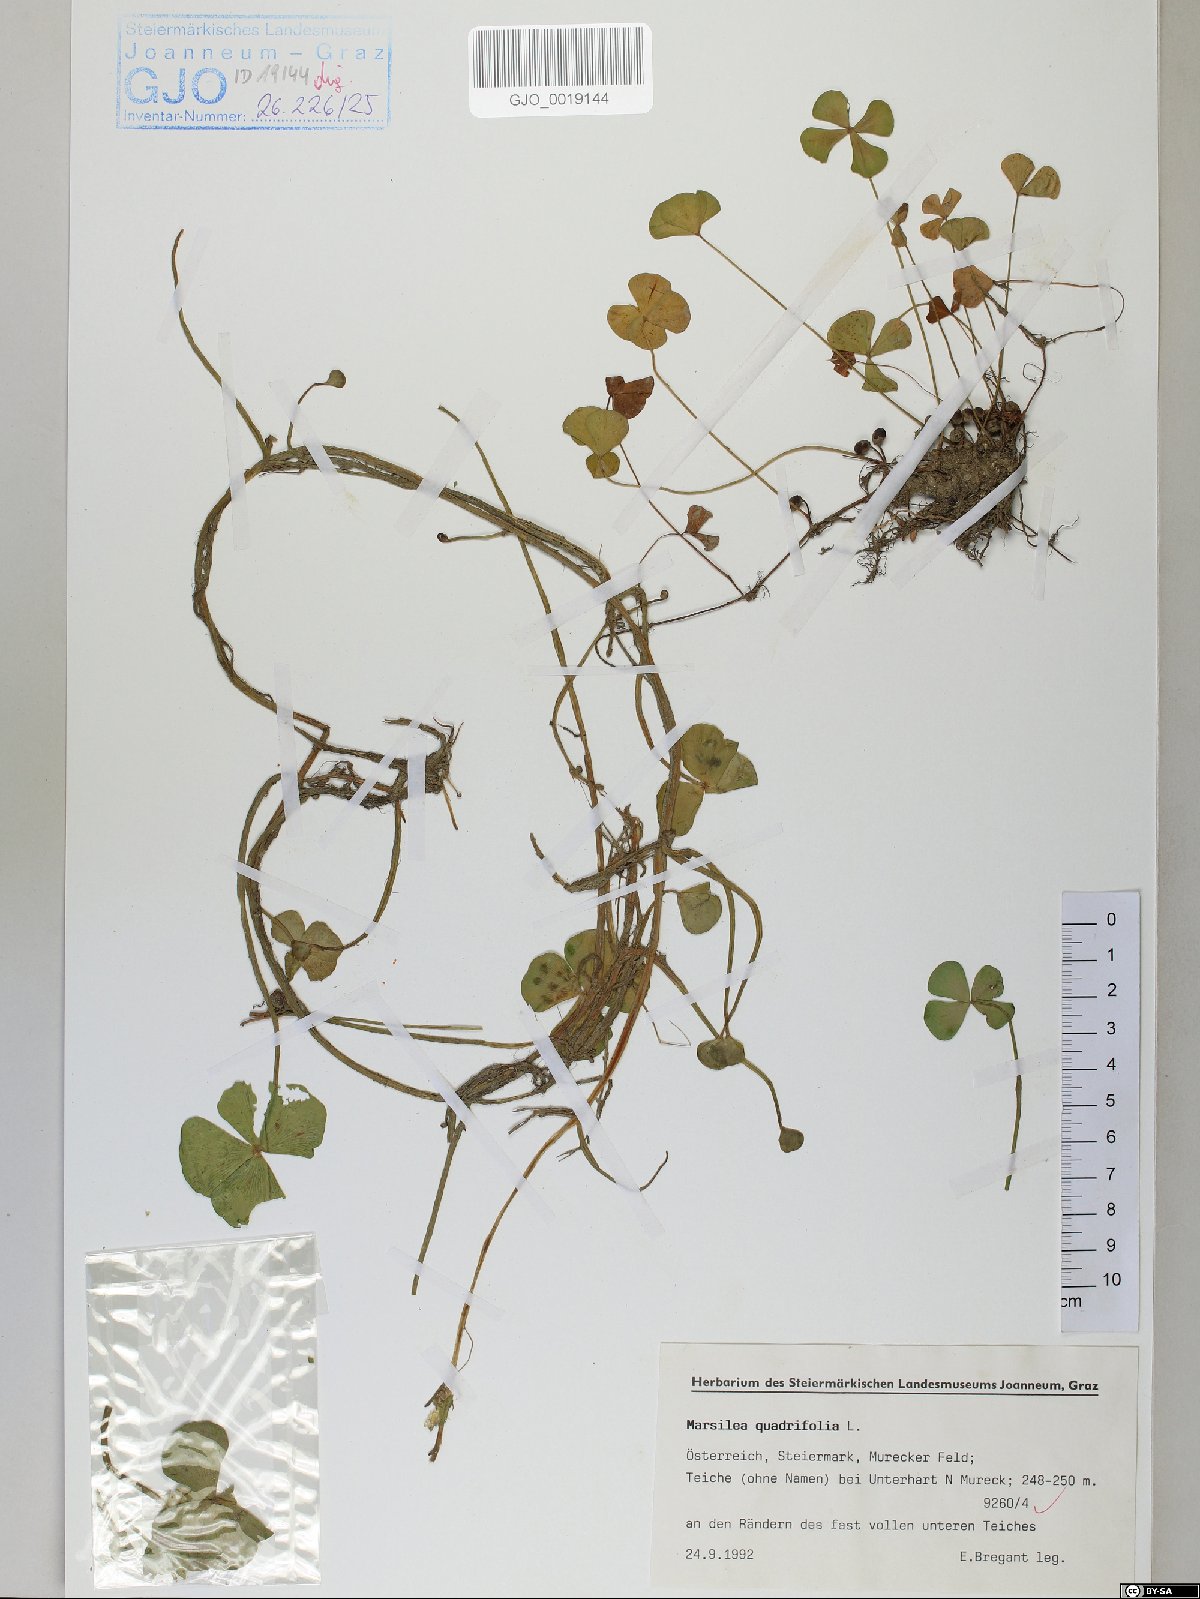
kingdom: Plantae
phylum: Tracheophyta
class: Polypodiopsida
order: Salviniales
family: Marsileaceae
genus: Marsilea
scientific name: Marsilea quadrifolia
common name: Water shamrock
